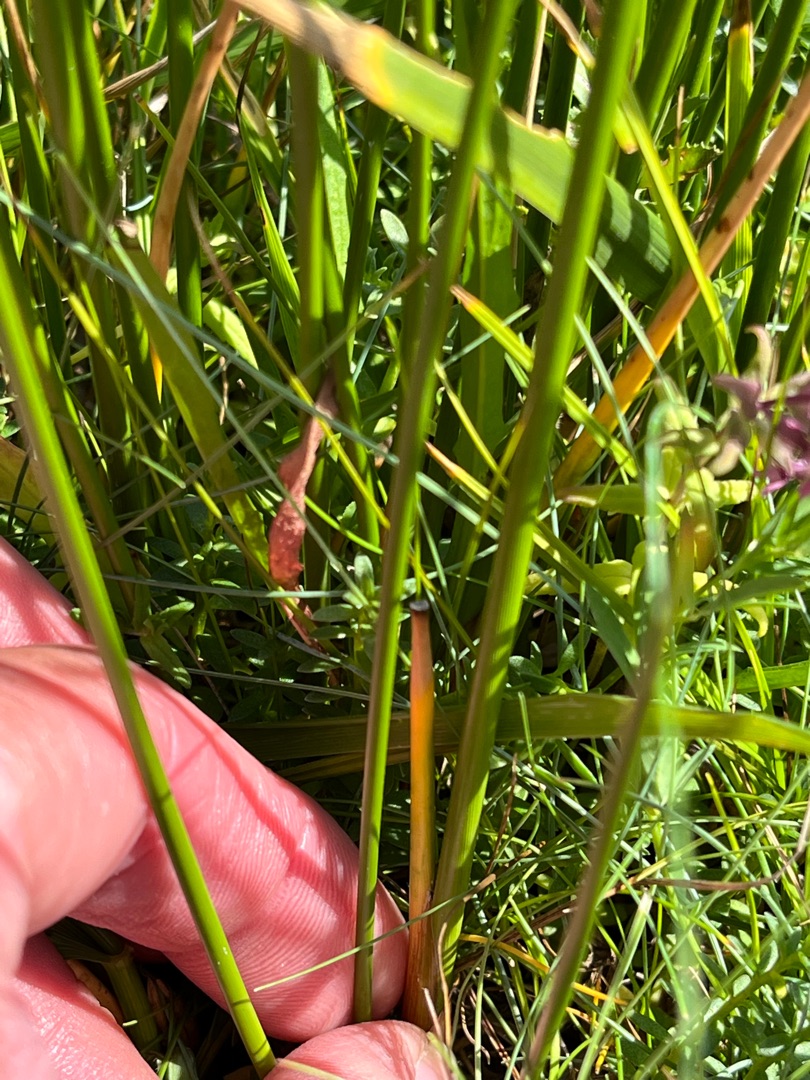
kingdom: Plantae
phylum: Tracheophyta
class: Liliopsida
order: Poales
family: Juncaceae
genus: Juncus
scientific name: Juncus maritimus
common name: Strand-siv
